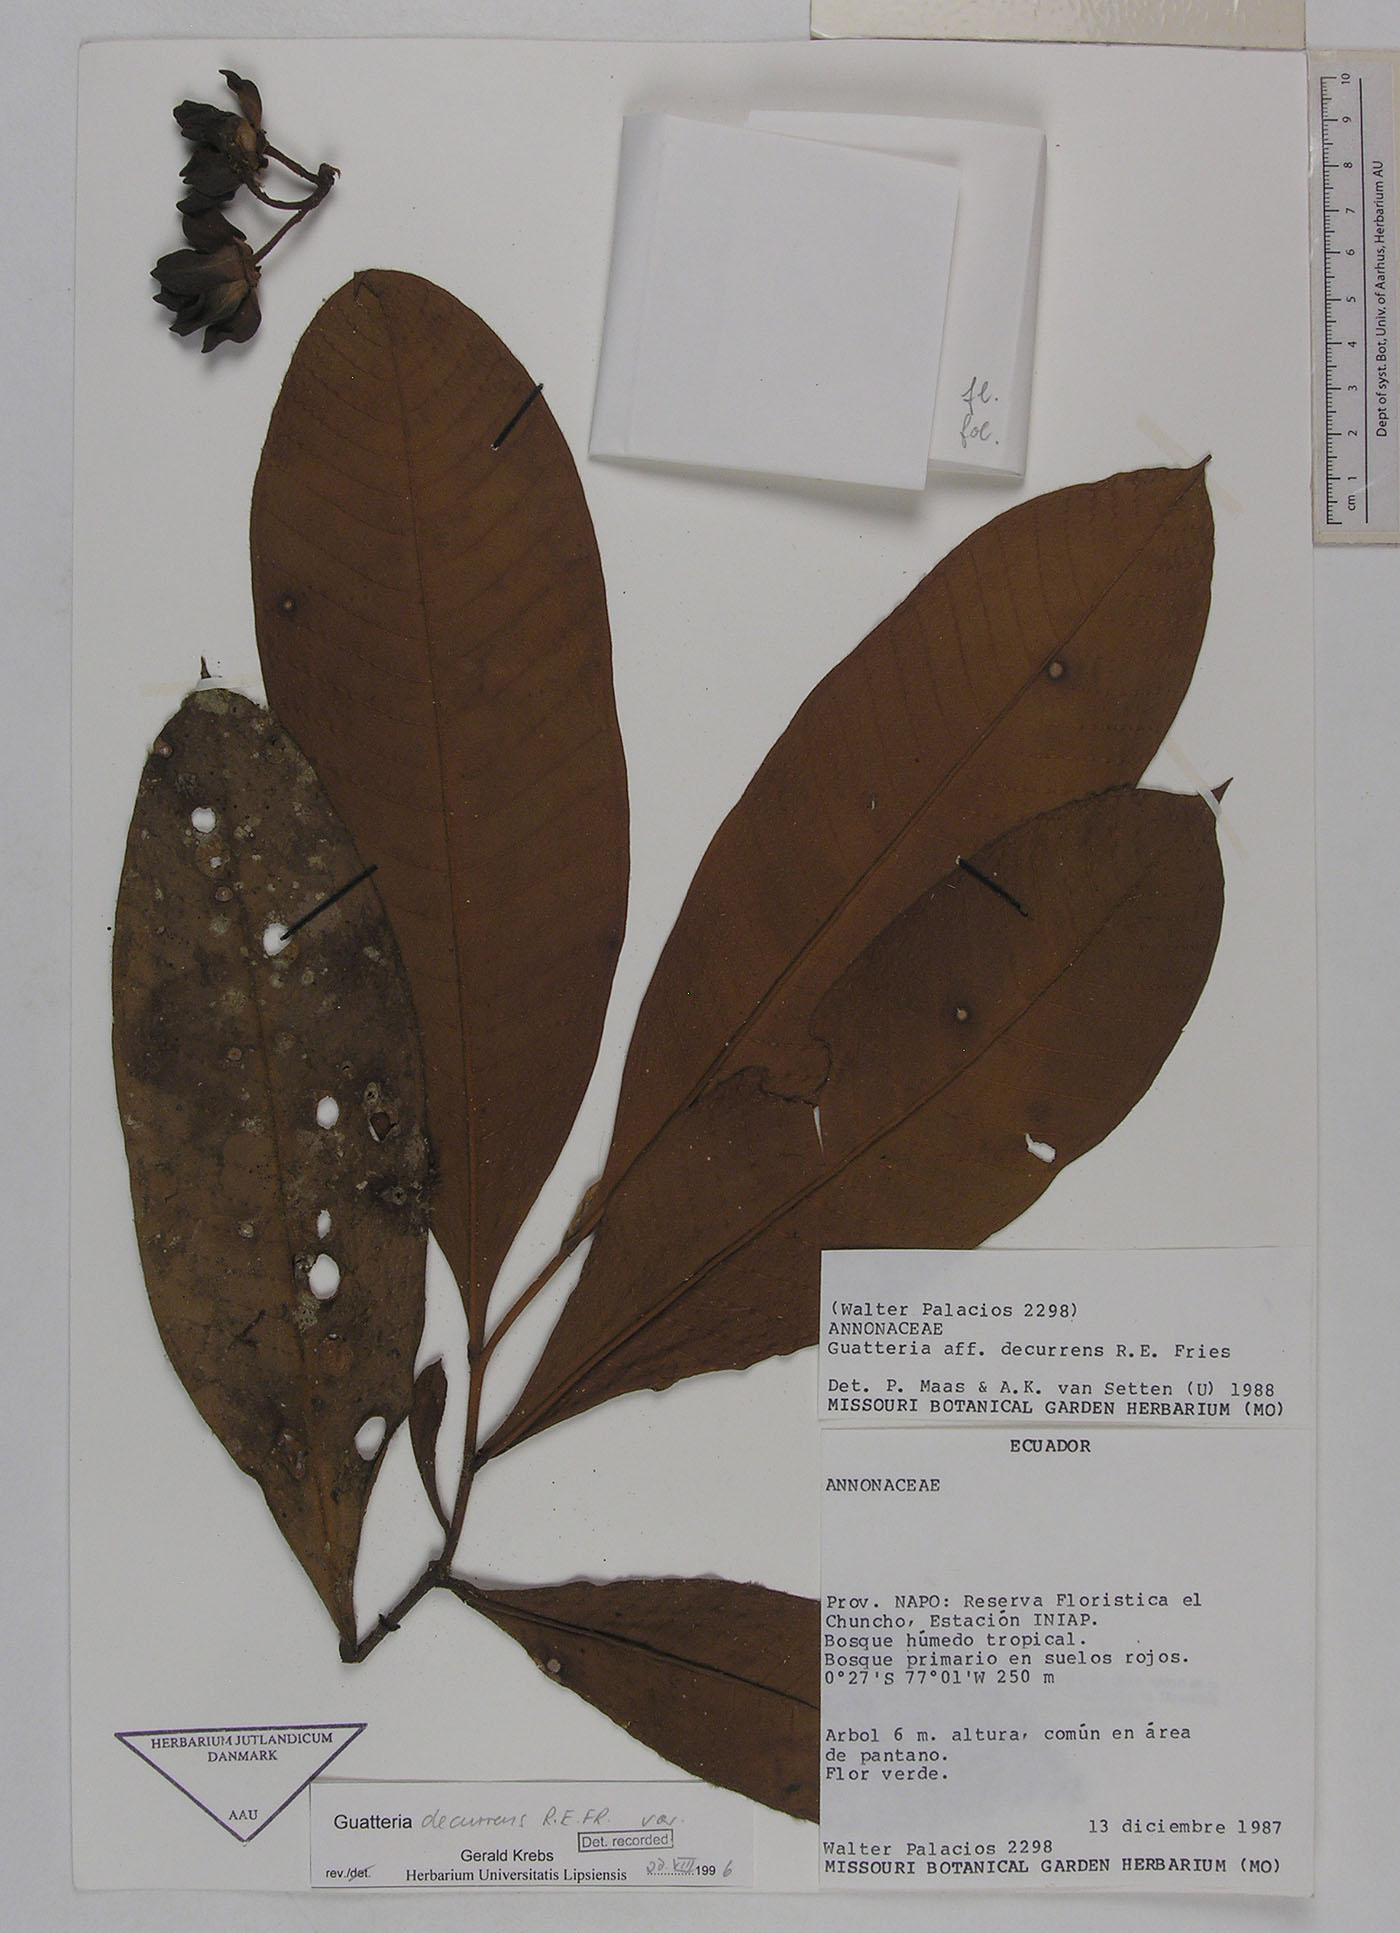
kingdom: Plantae
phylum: Tracheophyta
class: Magnoliopsida
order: Magnoliales
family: Annonaceae
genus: Guatteria
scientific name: Guatteria decurrens
